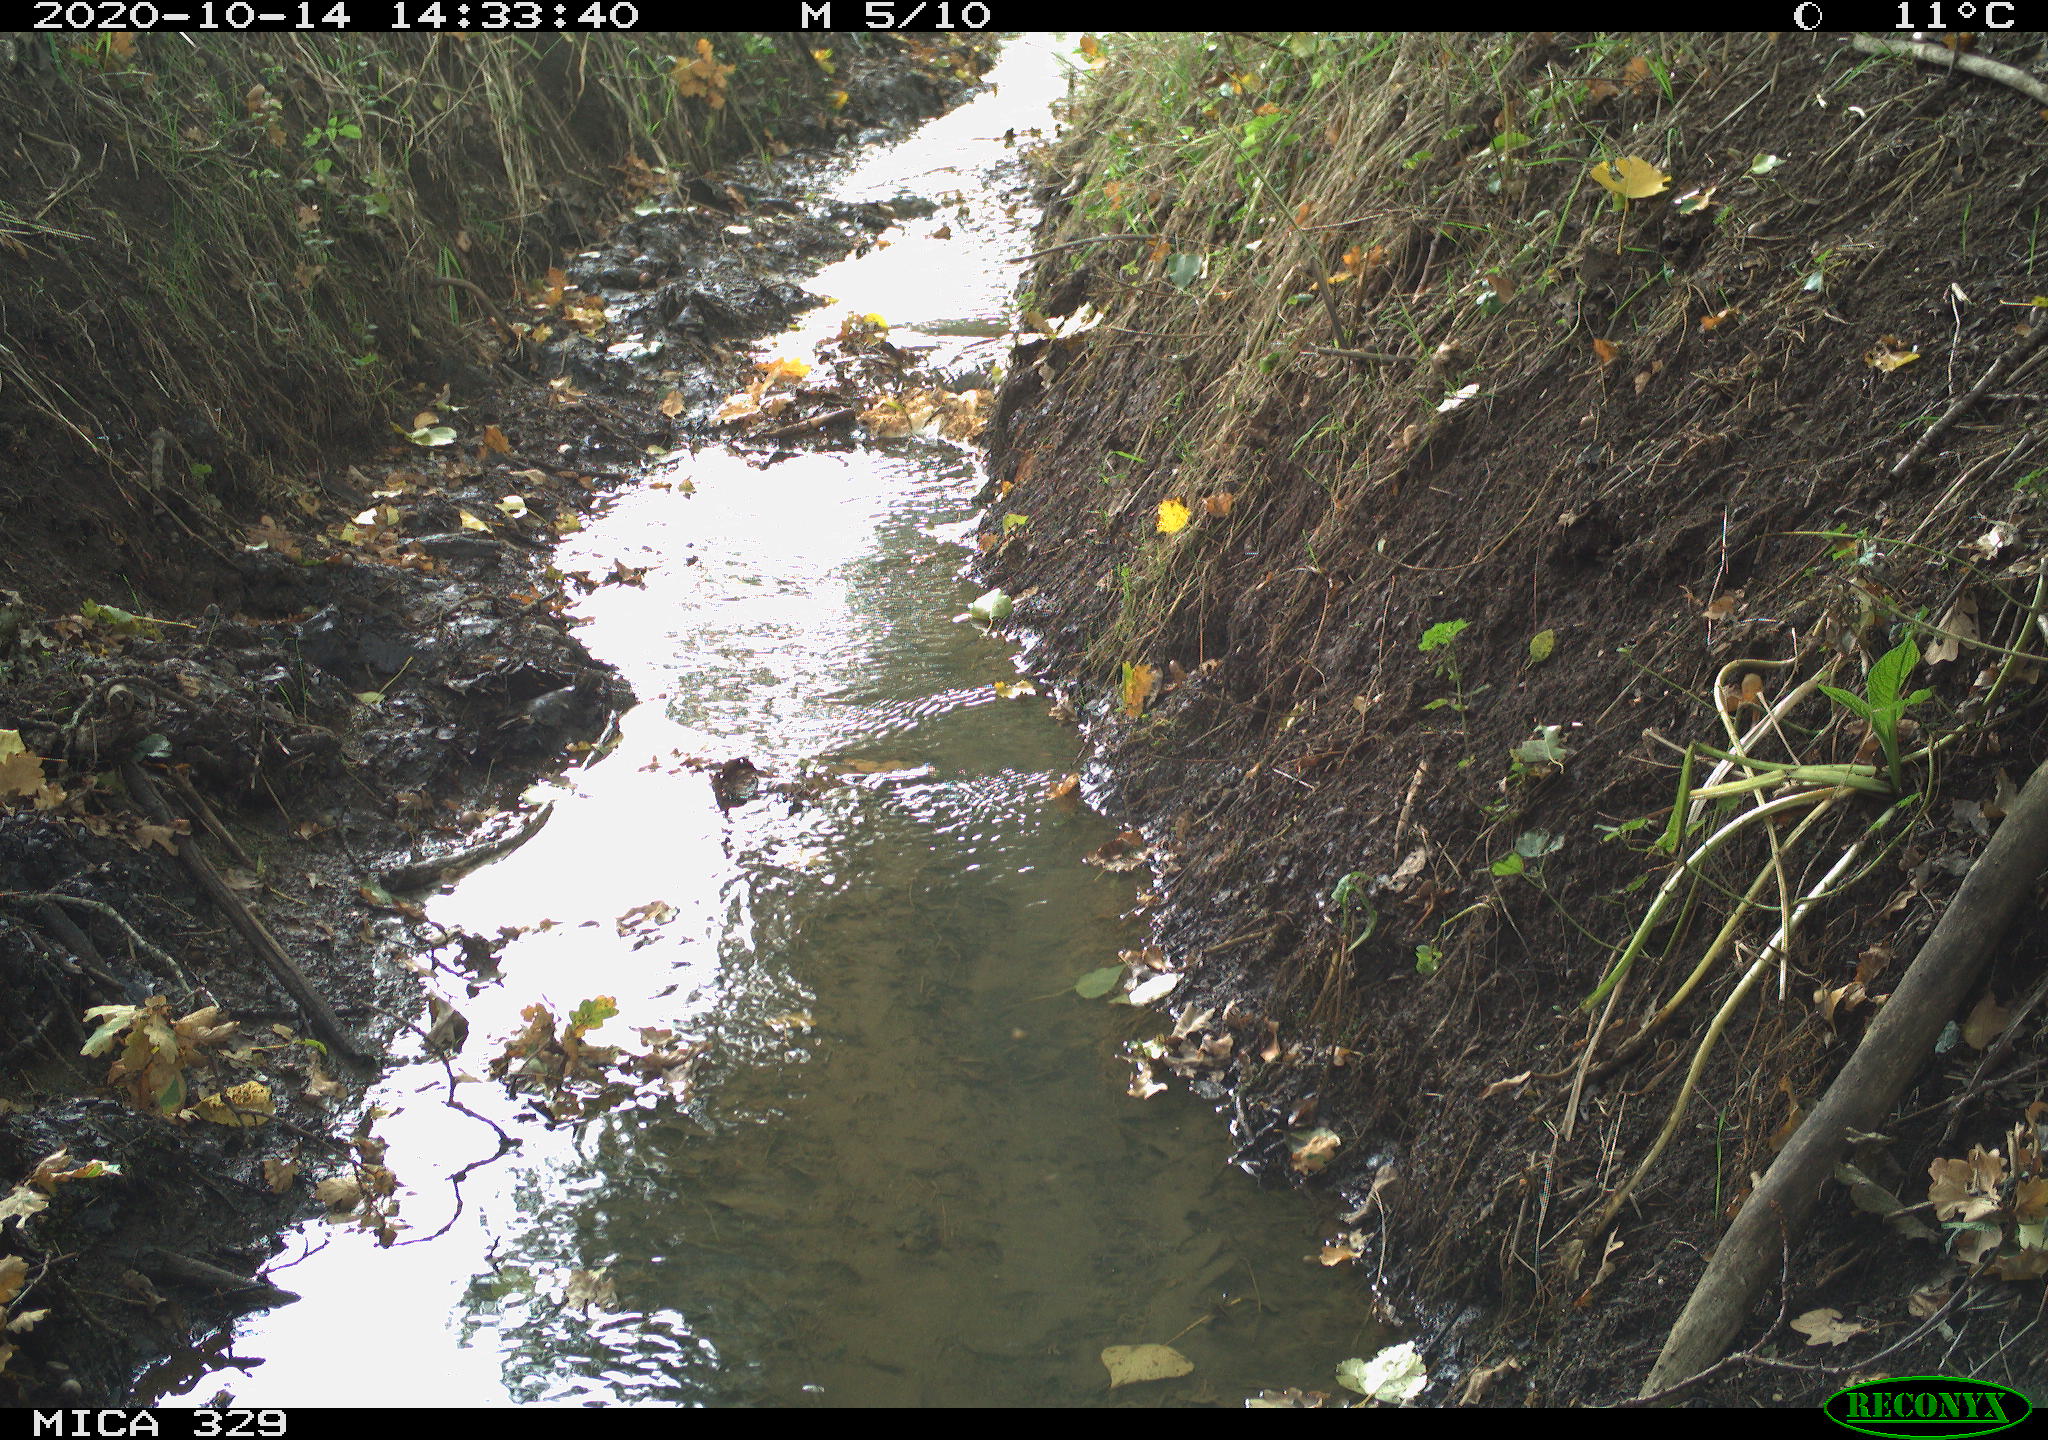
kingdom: Animalia
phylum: Chordata
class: Mammalia
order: Rodentia
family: Sciuridae
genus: Sciurus
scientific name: Sciurus vulgaris
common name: Eurasian red squirrel
